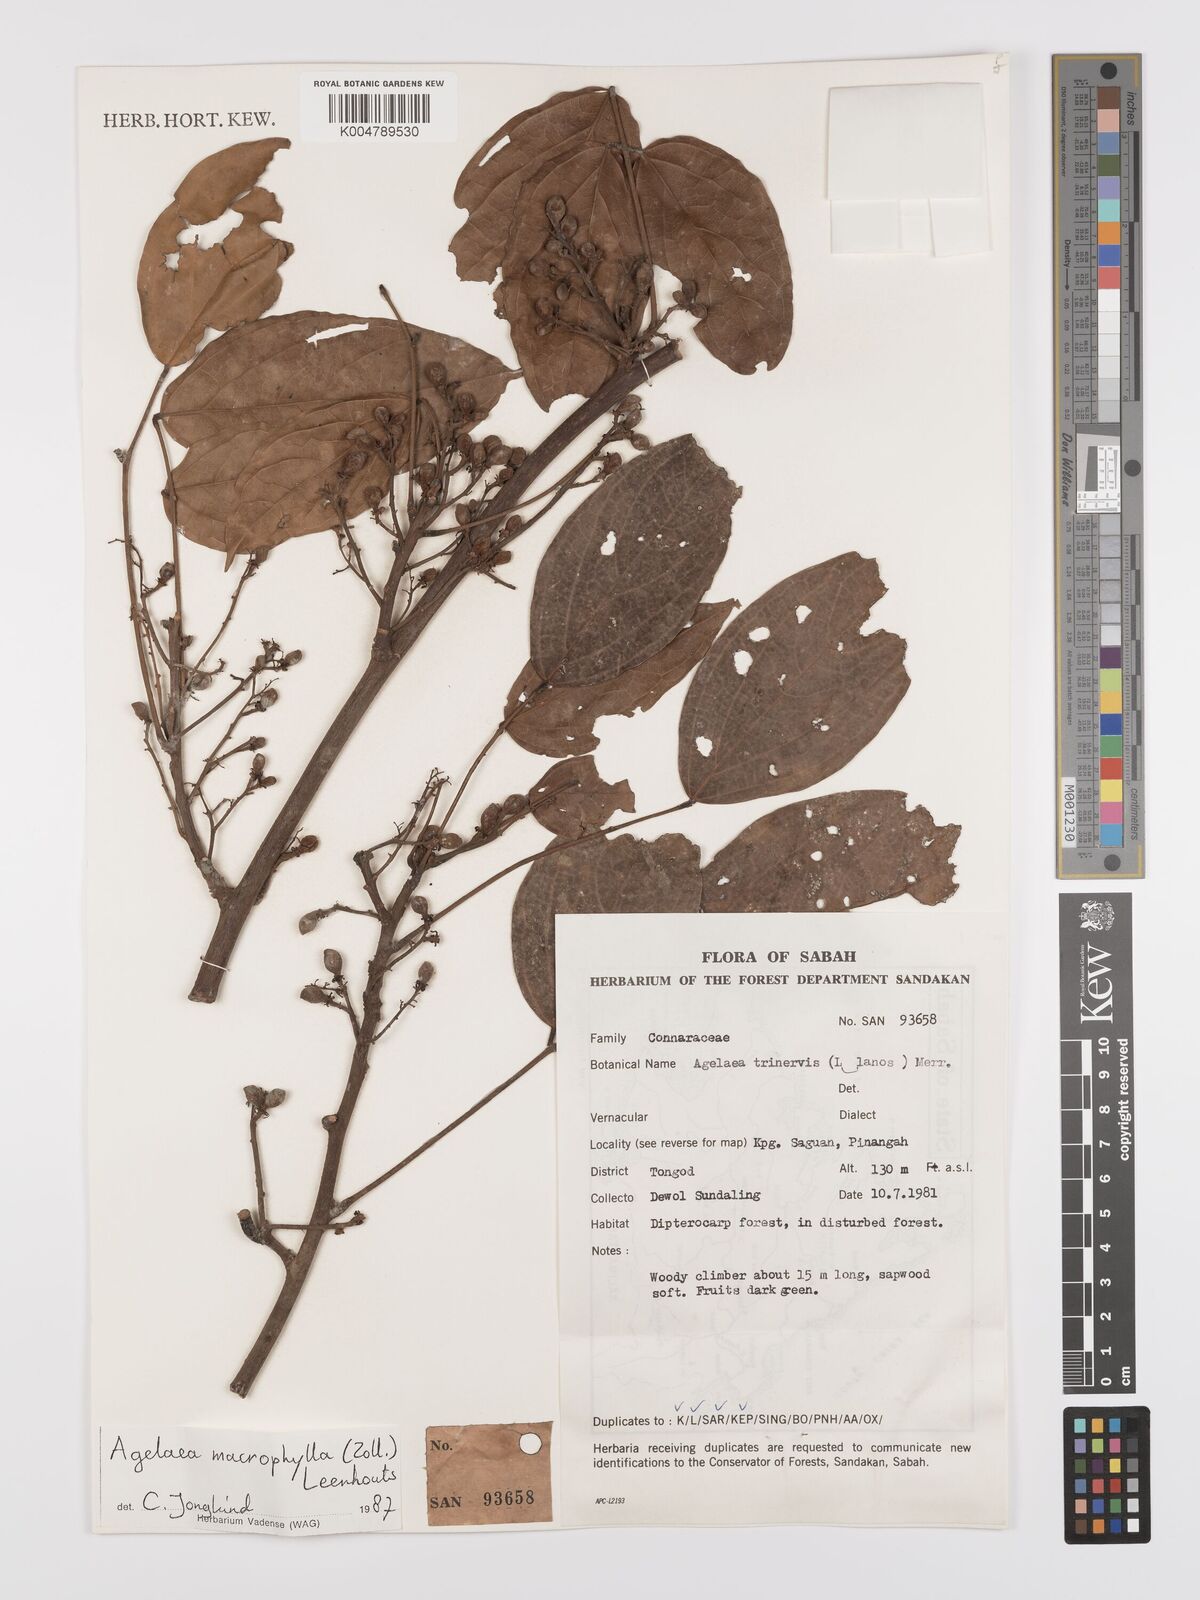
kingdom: Plantae
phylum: Tracheophyta
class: Magnoliopsida
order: Oxalidales
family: Connaraceae
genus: Agelaea
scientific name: Agelaea trinervis
